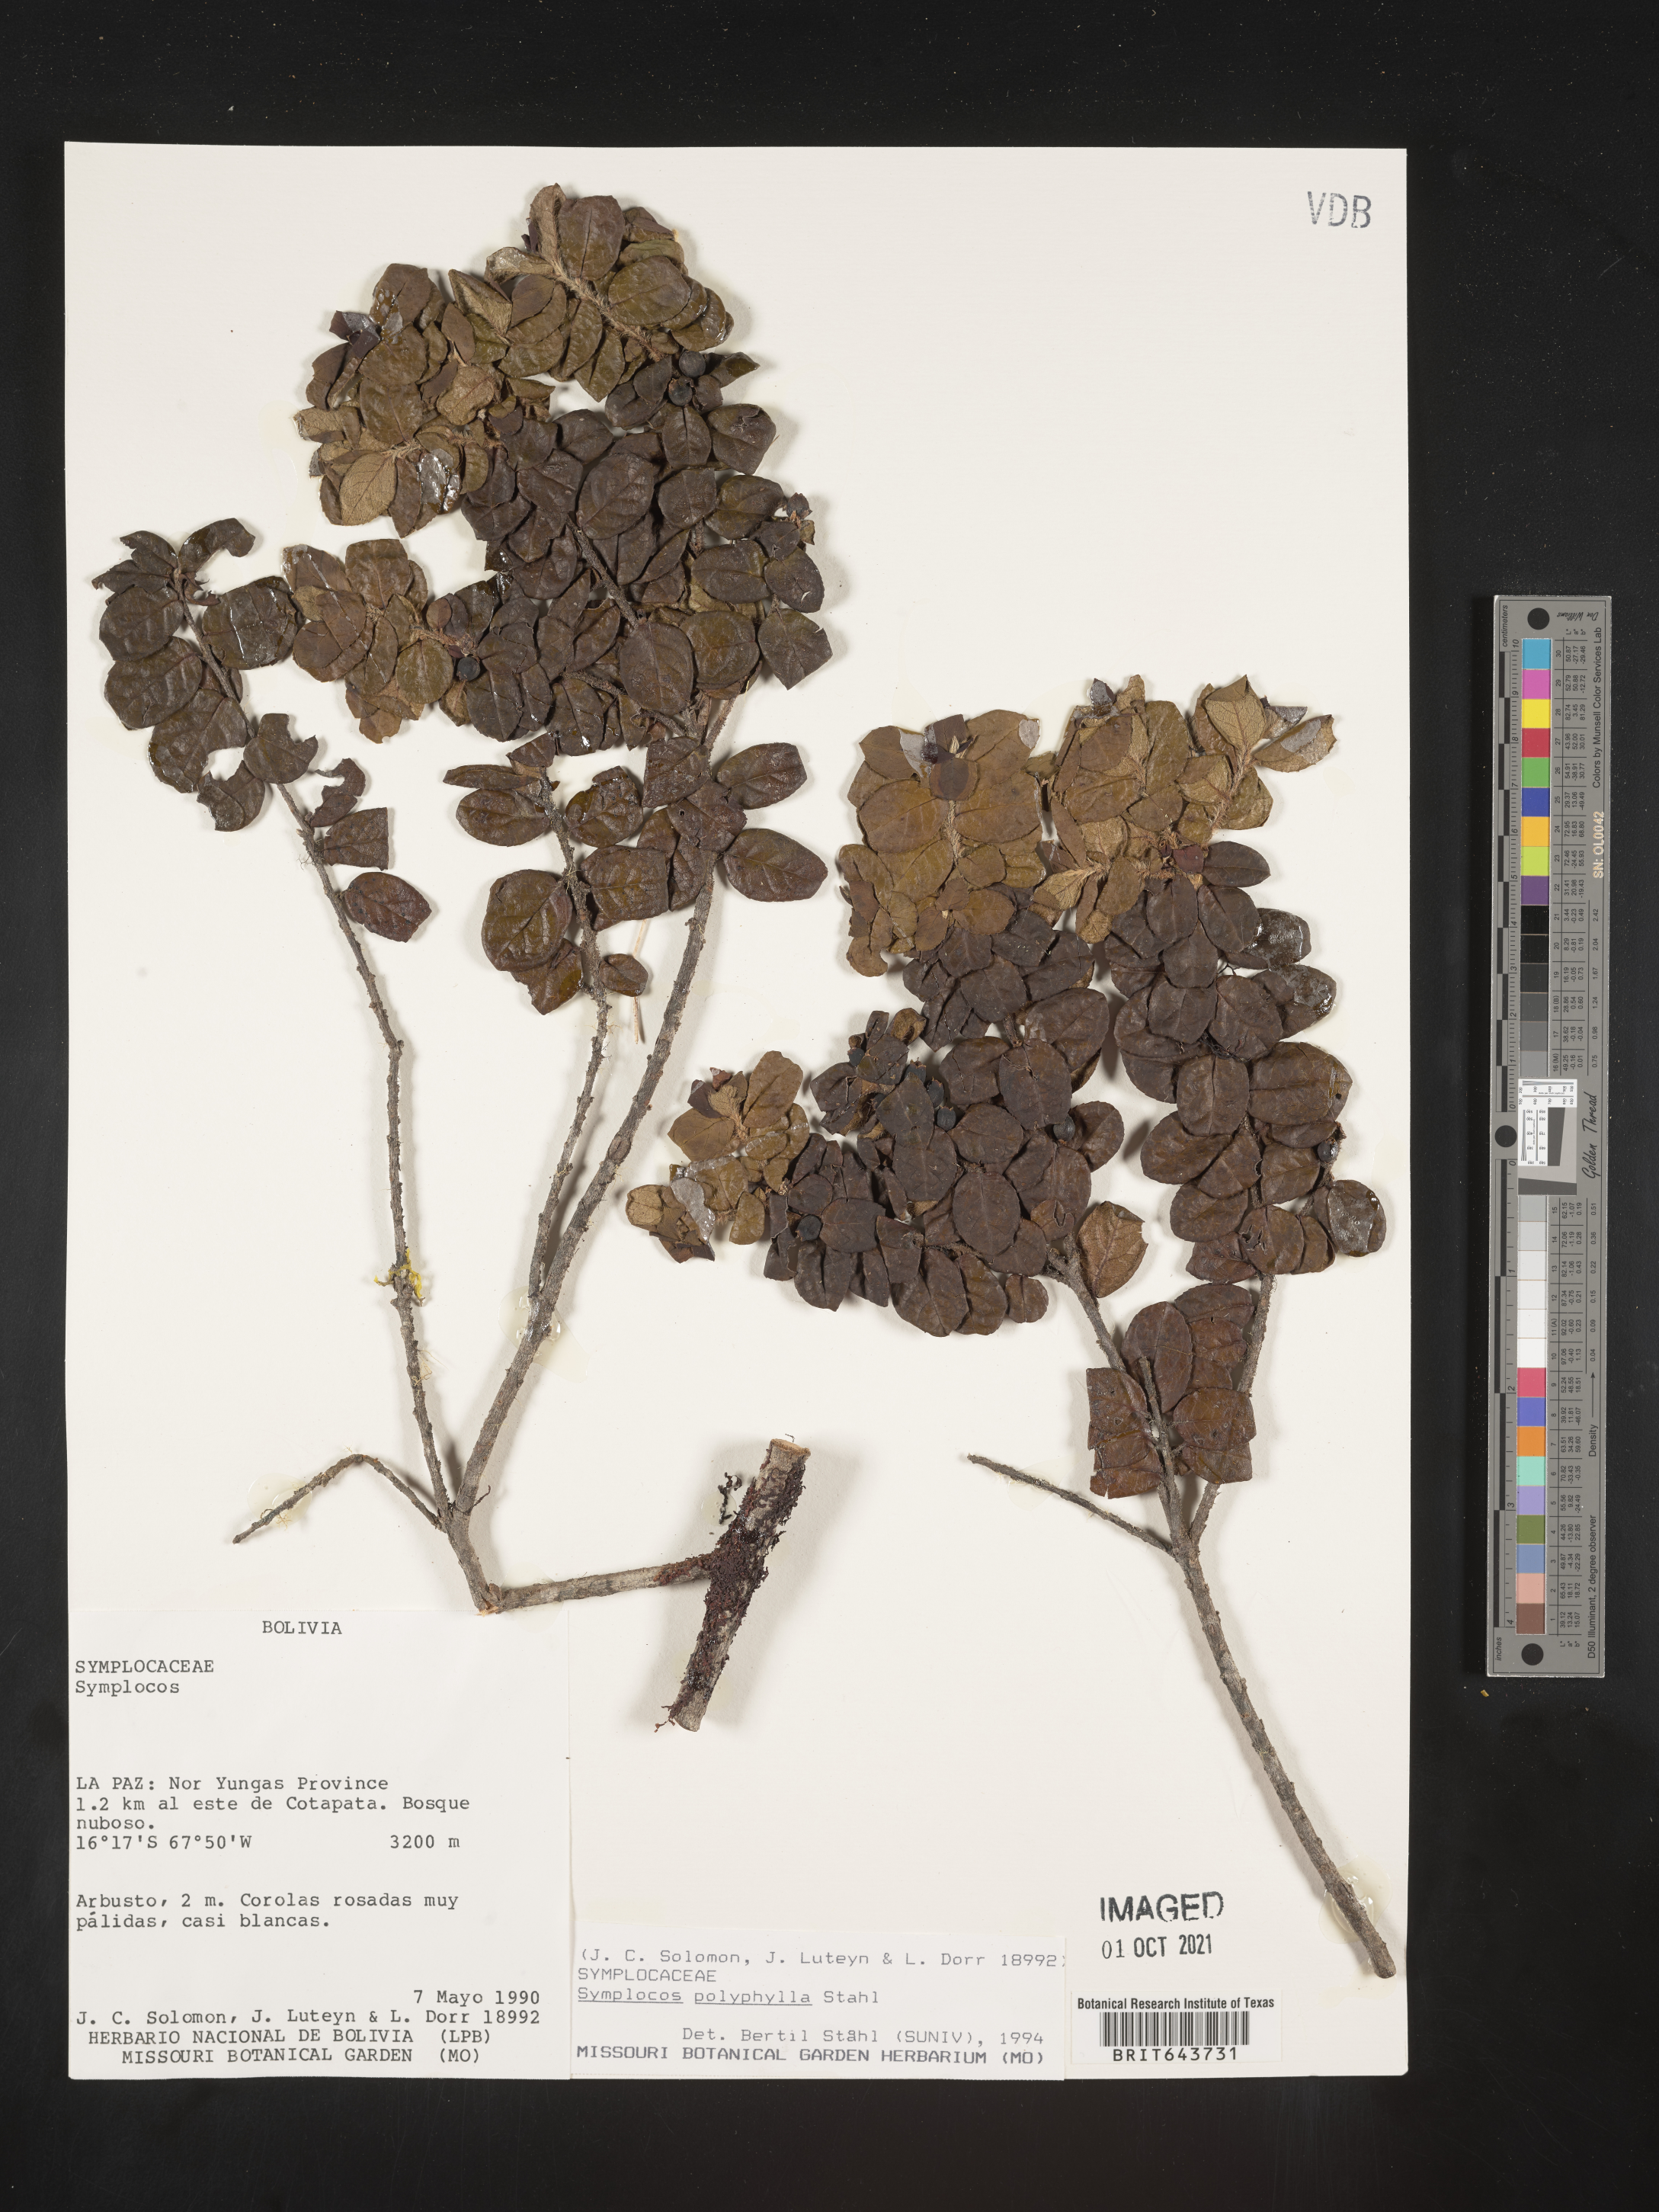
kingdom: Plantae
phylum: Tracheophyta
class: Magnoliopsida
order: Ericales
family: Symplocaceae
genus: Symplocos
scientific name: Symplocos
